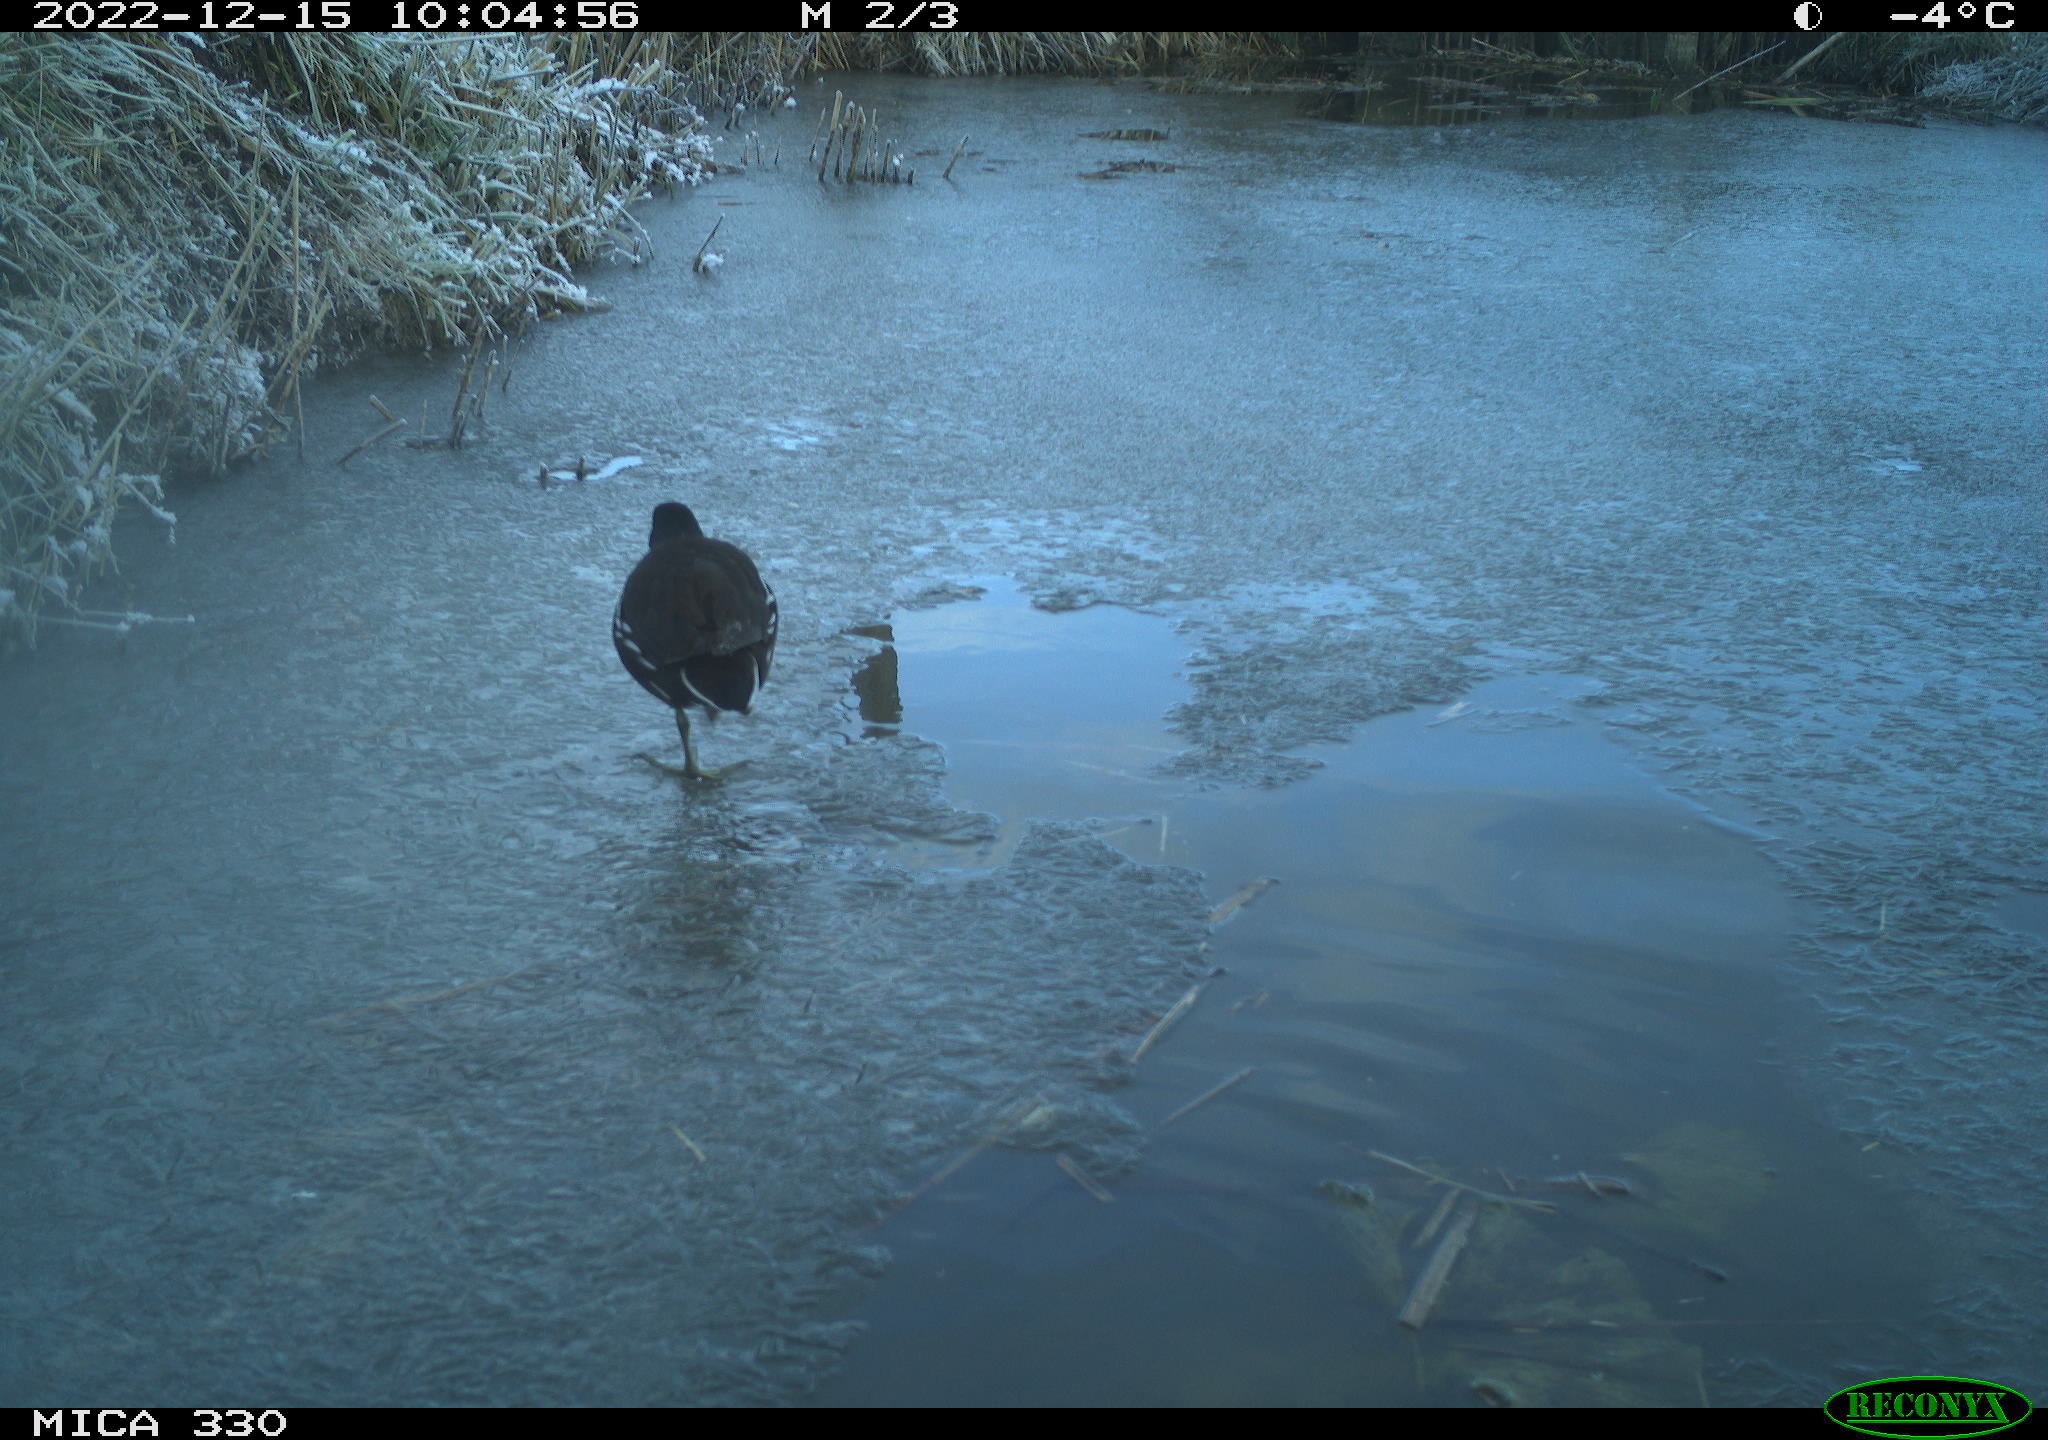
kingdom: Animalia
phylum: Chordata
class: Aves
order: Gruiformes
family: Rallidae
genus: Gallinula
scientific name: Gallinula chloropus
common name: Common moorhen
